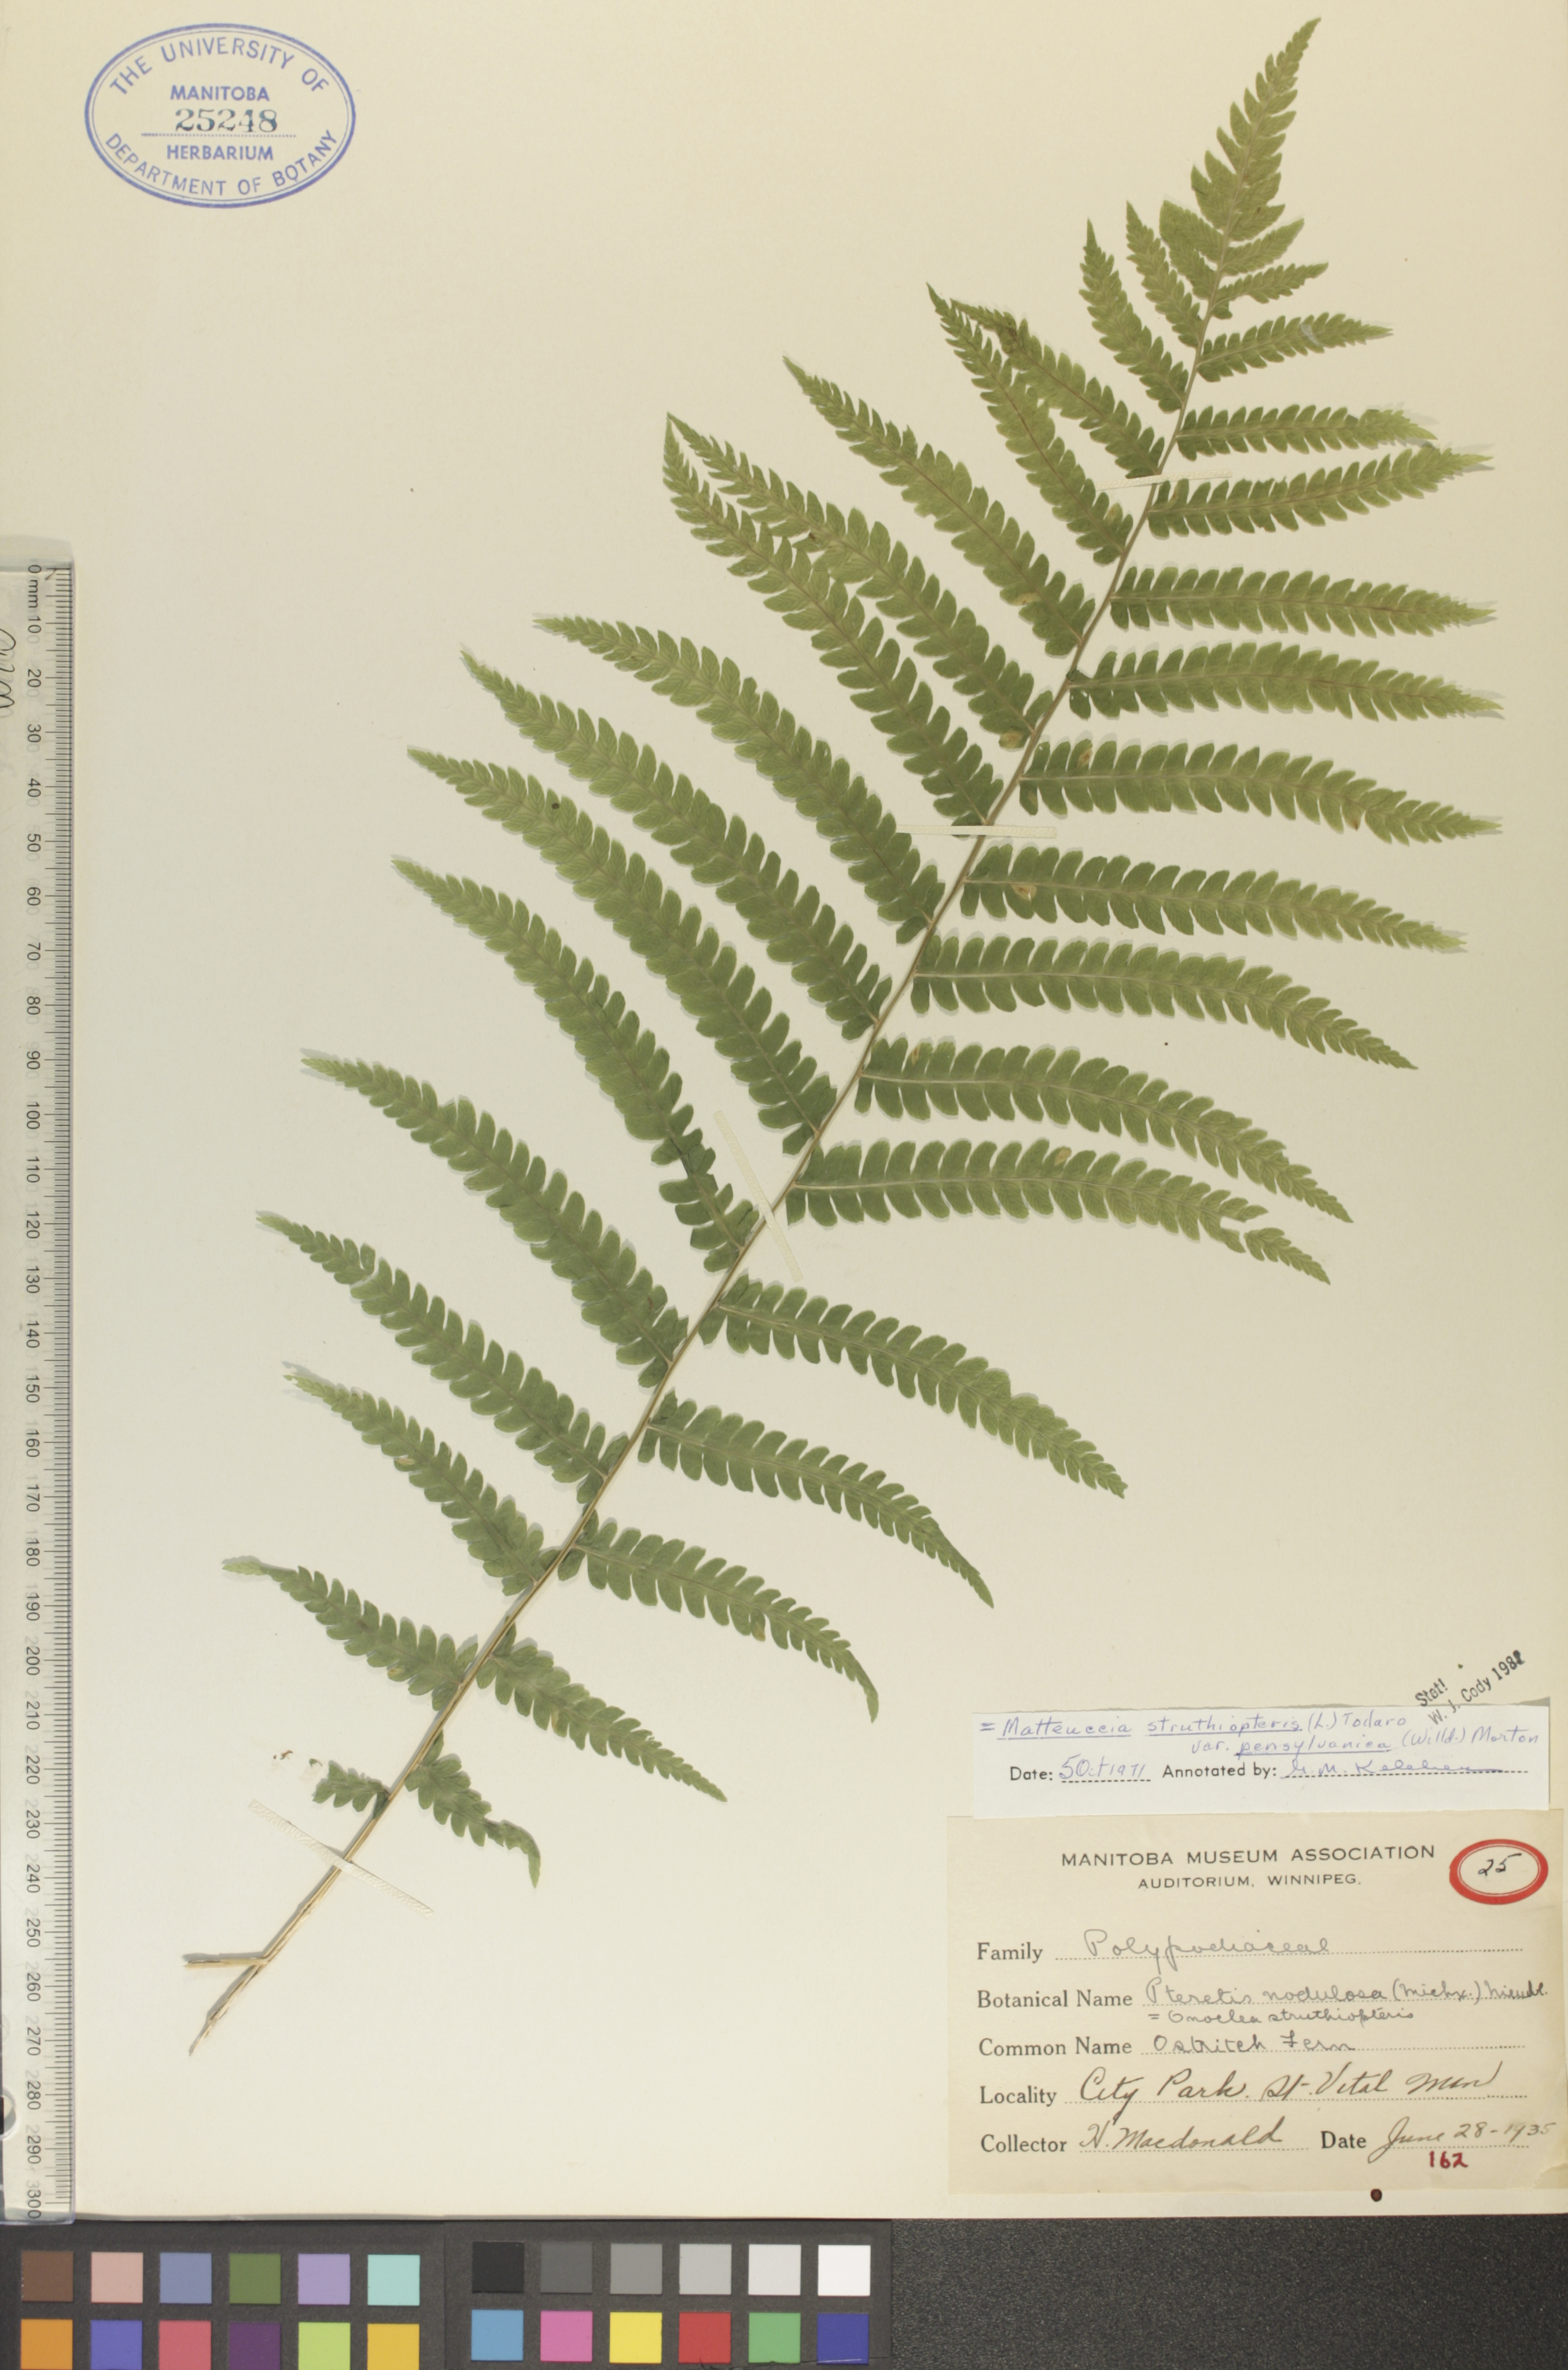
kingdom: Plantae
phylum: Tracheophyta
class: Polypodiopsida
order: Polypodiales
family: Onocleaceae
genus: Matteuccia
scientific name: Matteuccia pensylvanica
